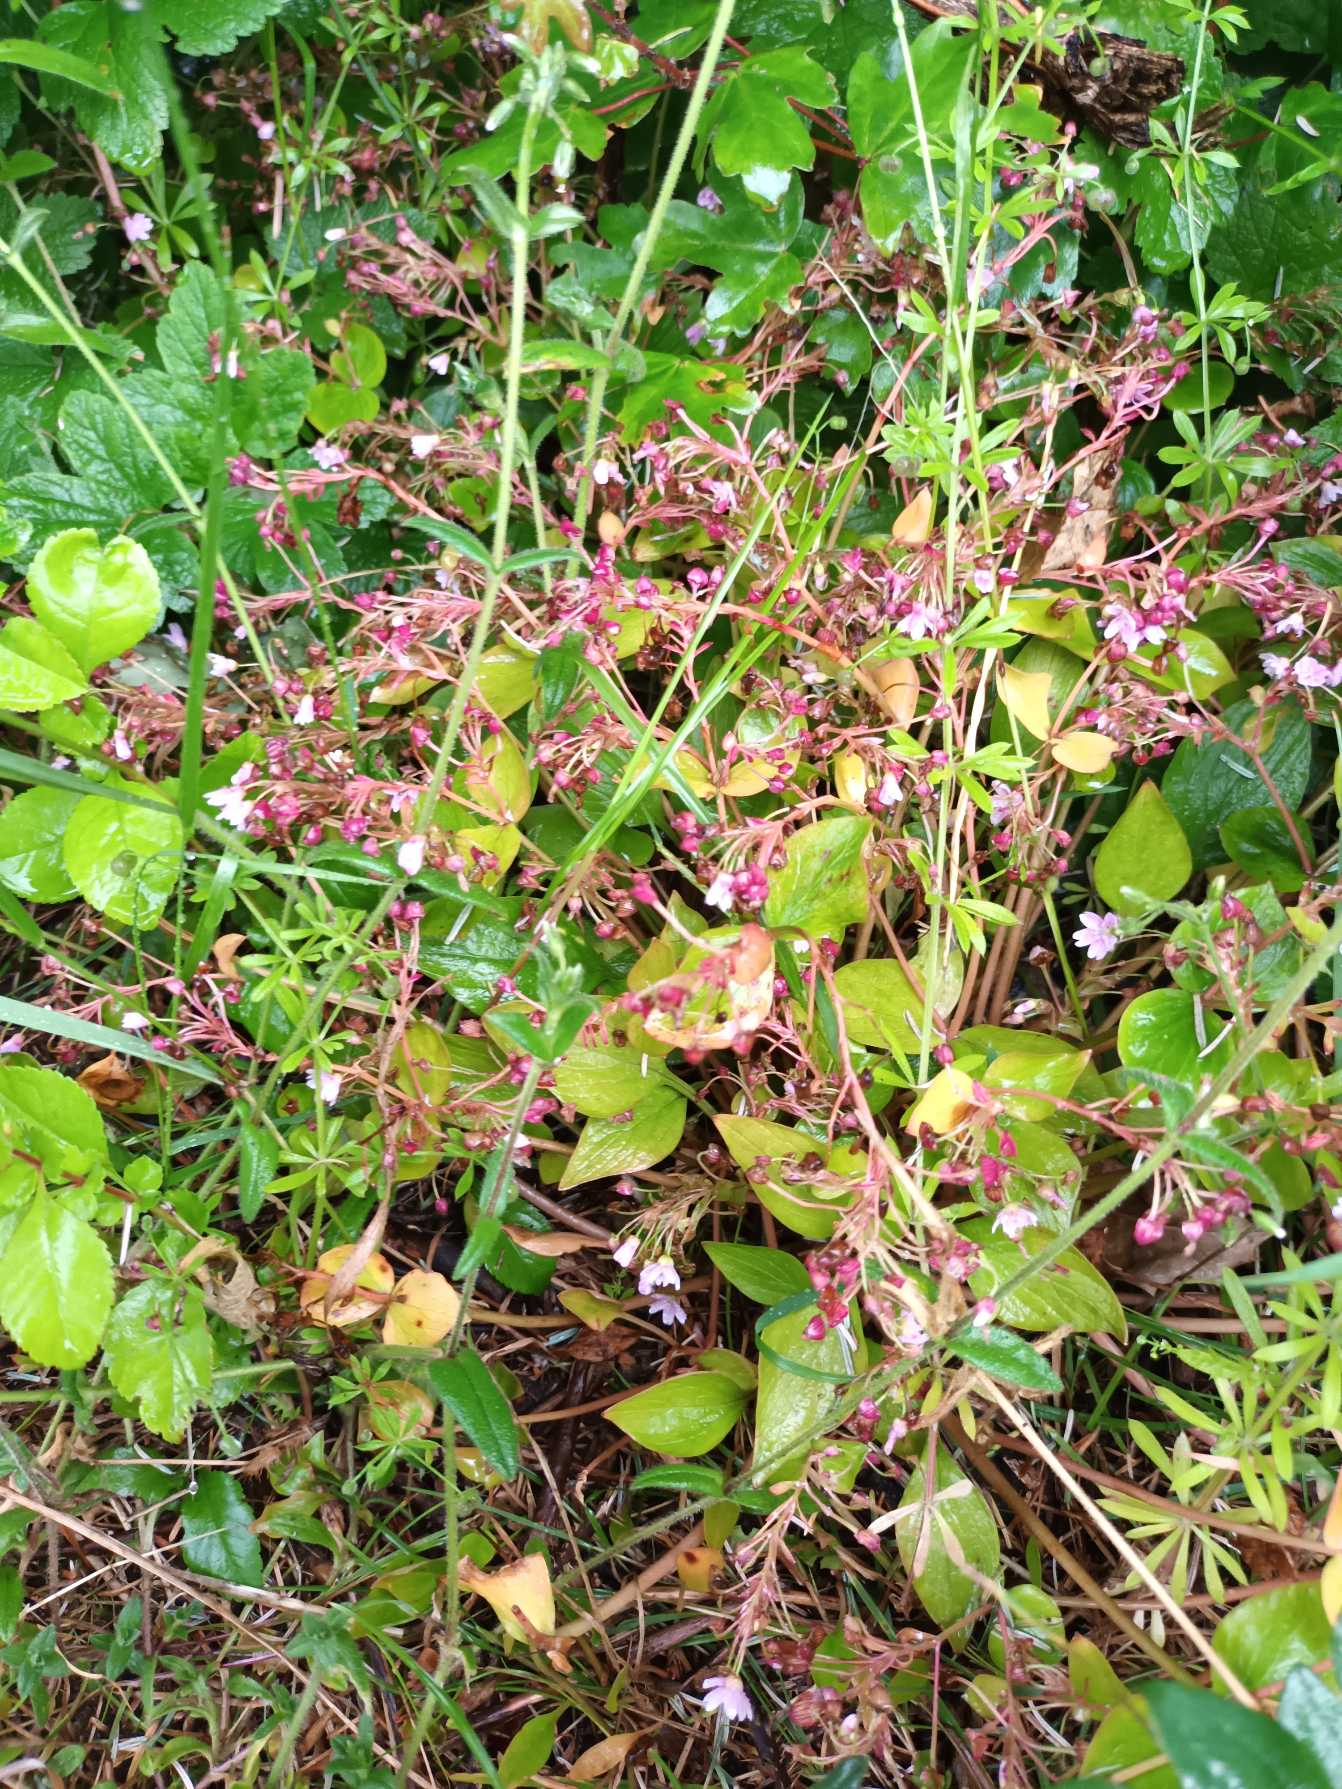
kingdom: Plantae
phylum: Tracheophyta
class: Magnoliopsida
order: Caryophyllales
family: Montiaceae
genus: Claytonia
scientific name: Claytonia sibirica
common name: Sibirisk vinterportulak
